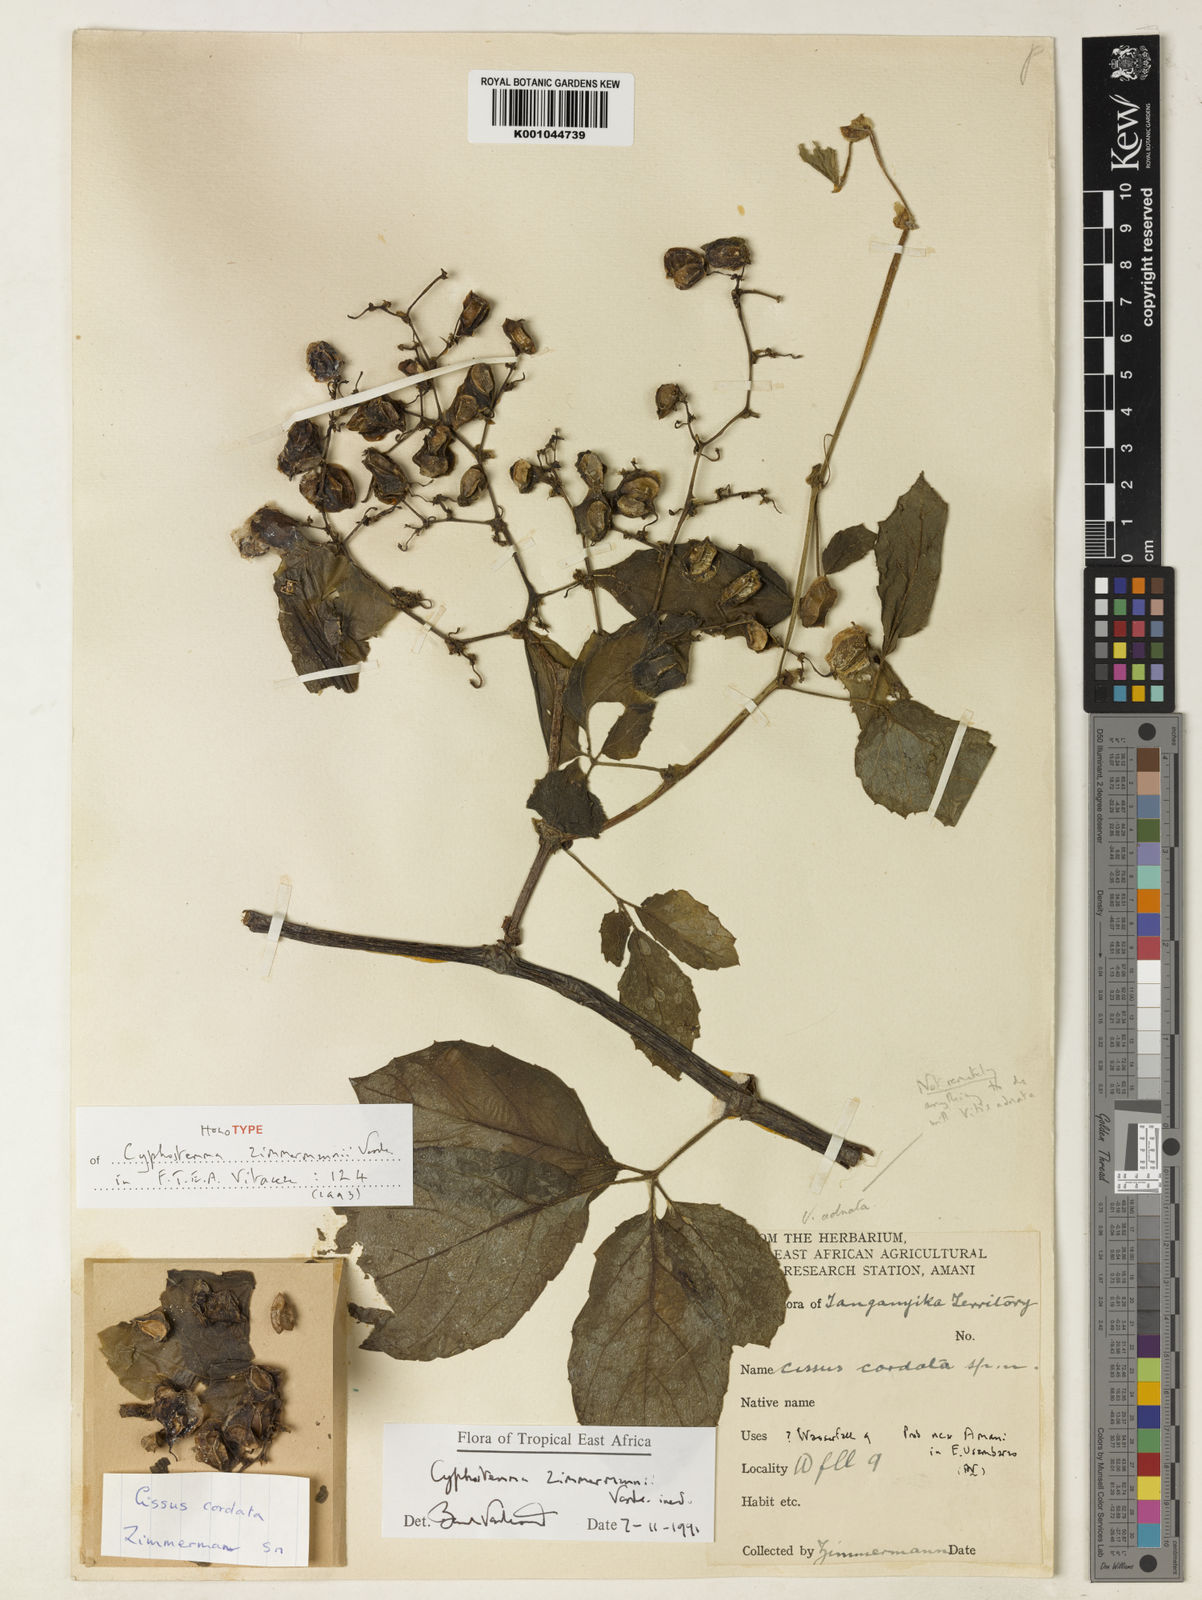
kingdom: Plantae
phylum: Tracheophyta
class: Magnoliopsida
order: Vitales
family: Vitaceae
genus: Cyphostemma
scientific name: Cyphostemma zimmermannii
